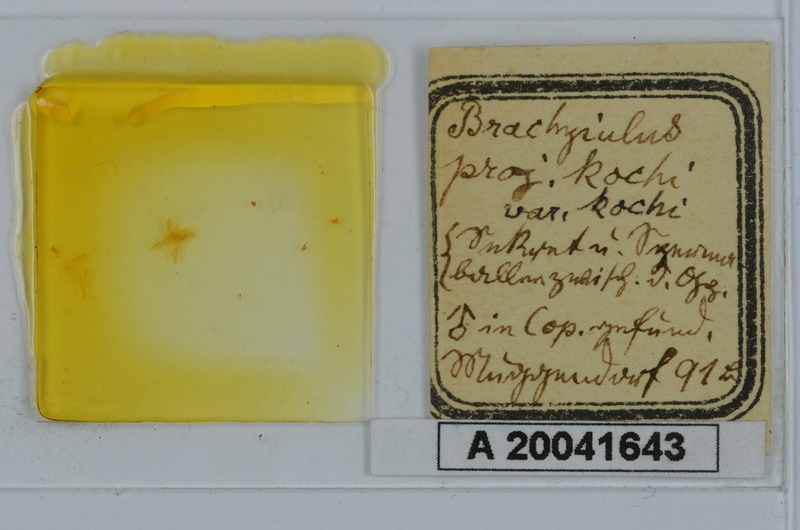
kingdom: Animalia
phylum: Arthropoda
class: Diplopoda
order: Julida
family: Julidae
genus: Megaphyllum
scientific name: Megaphyllum projectum
